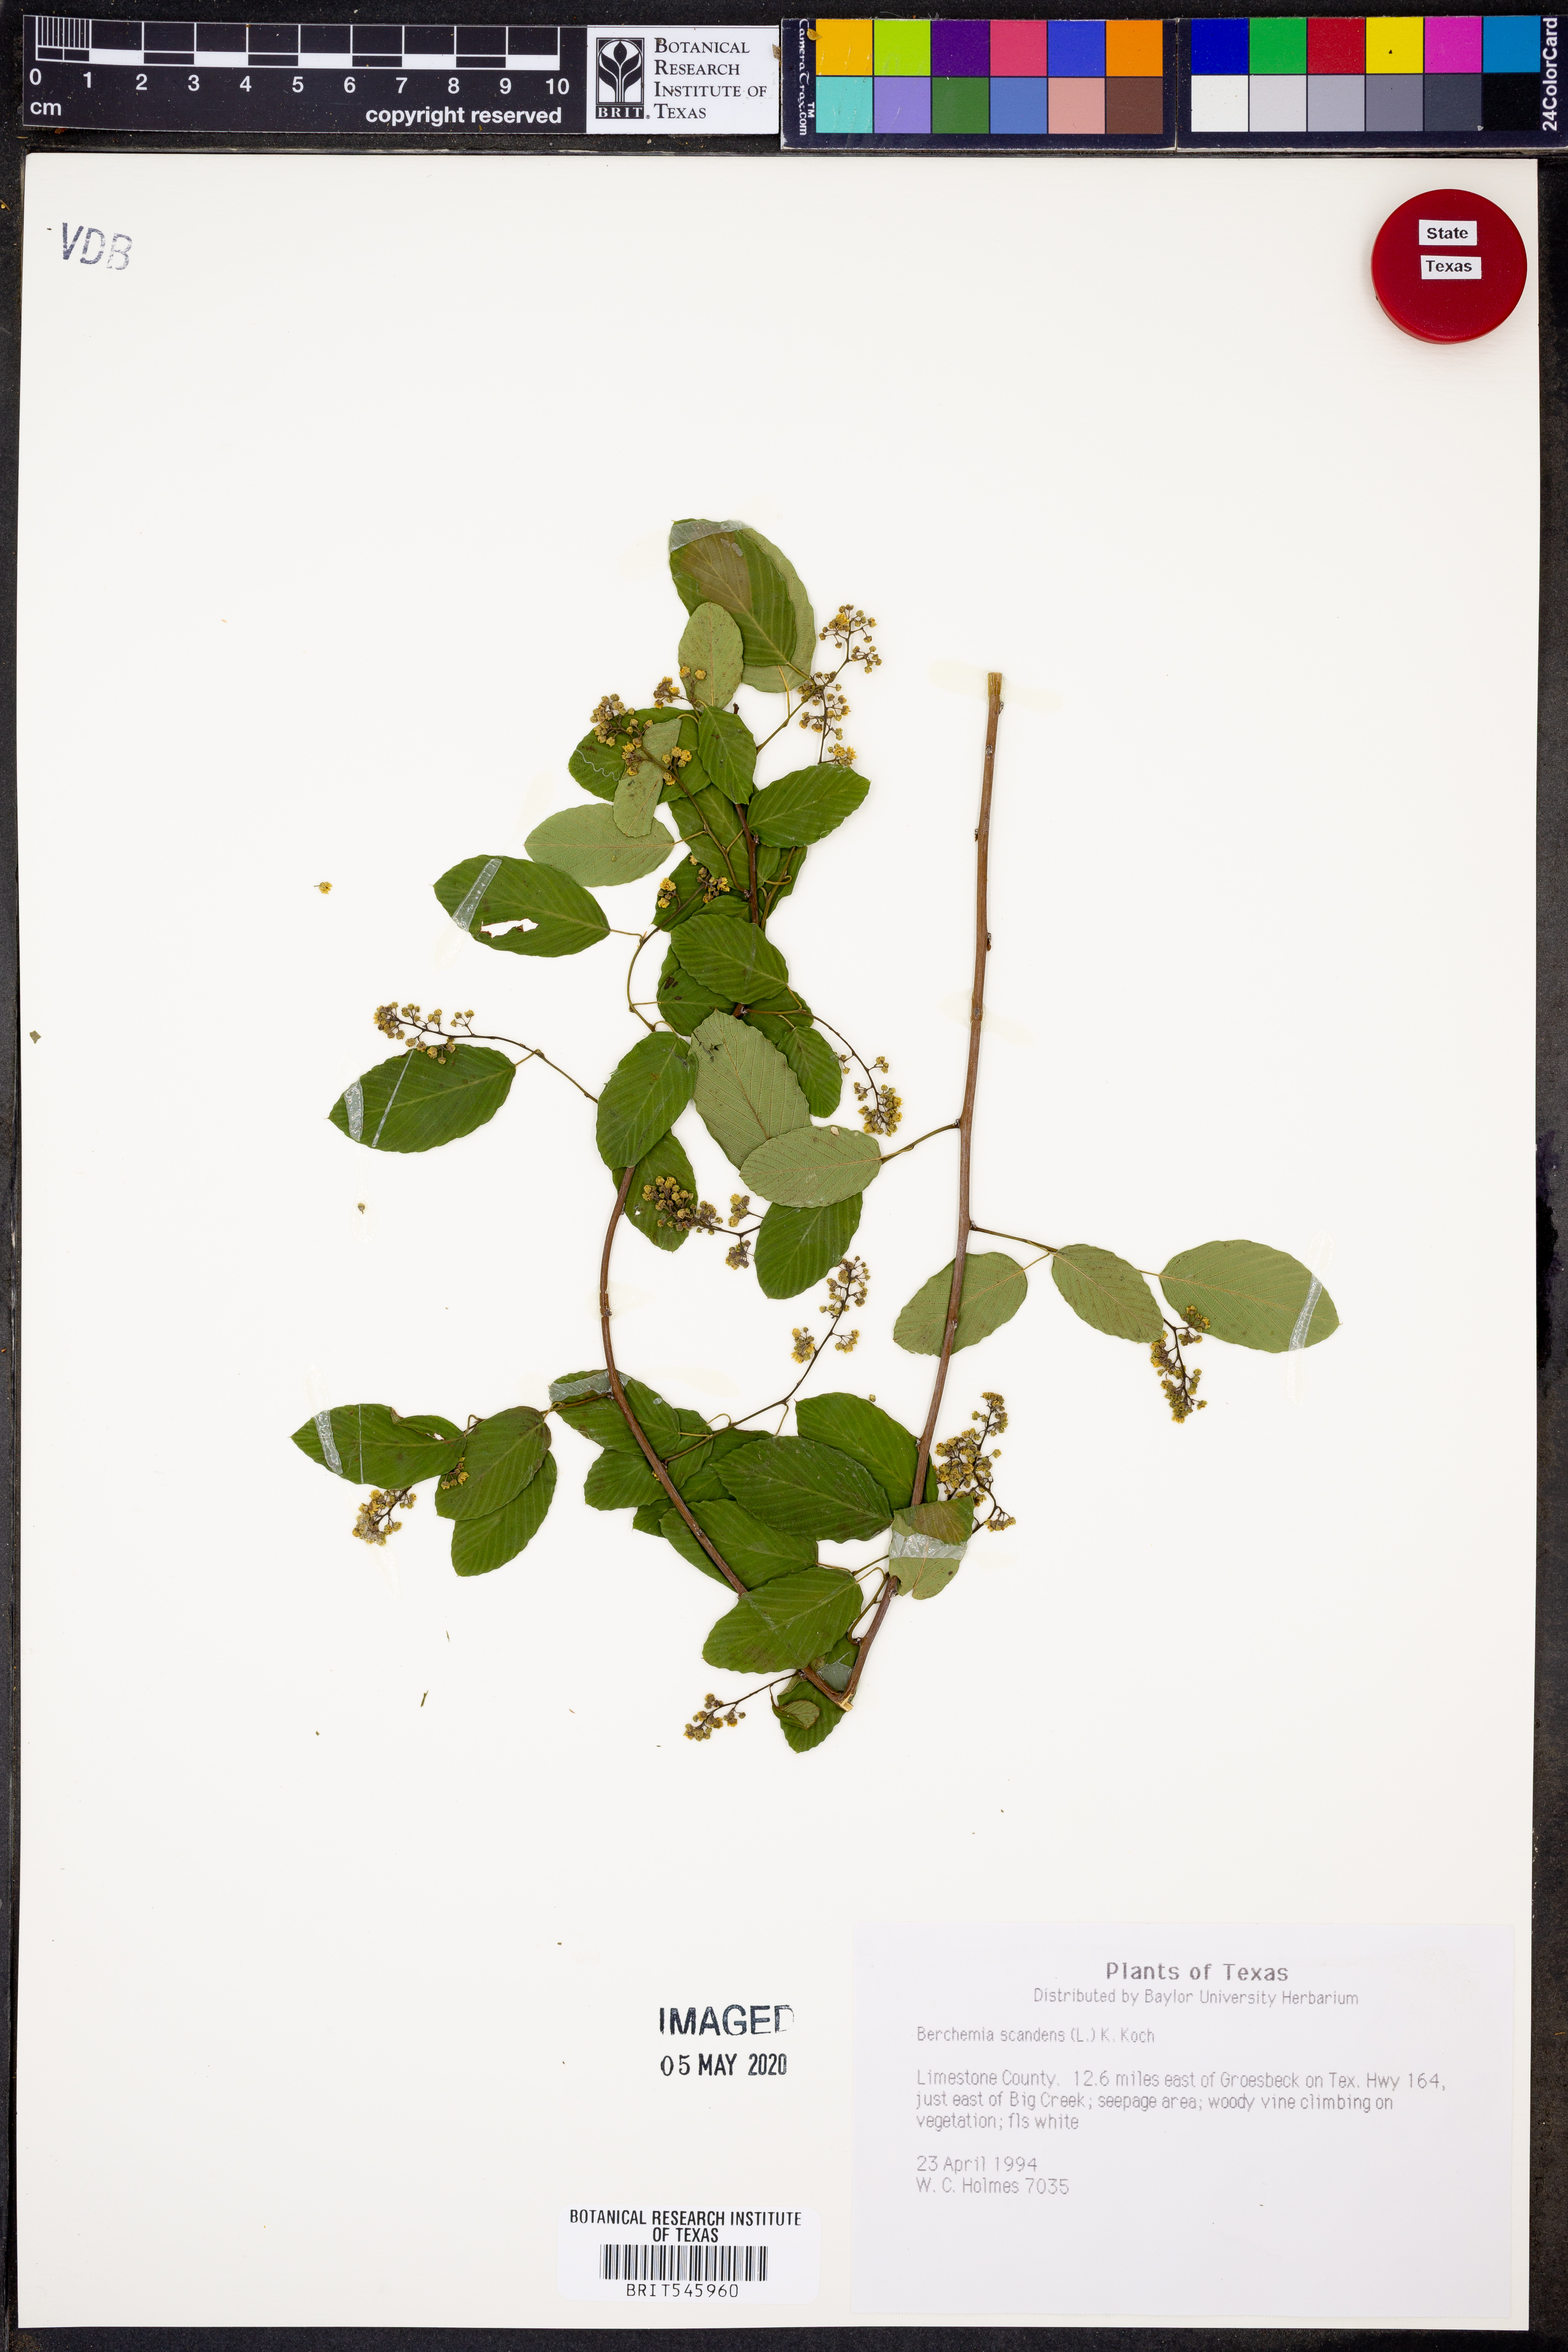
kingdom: Plantae
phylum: Tracheophyta
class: Magnoliopsida
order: Rosales
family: Rhamnaceae
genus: Berchemia
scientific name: Berchemia scandens
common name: Supplejack
